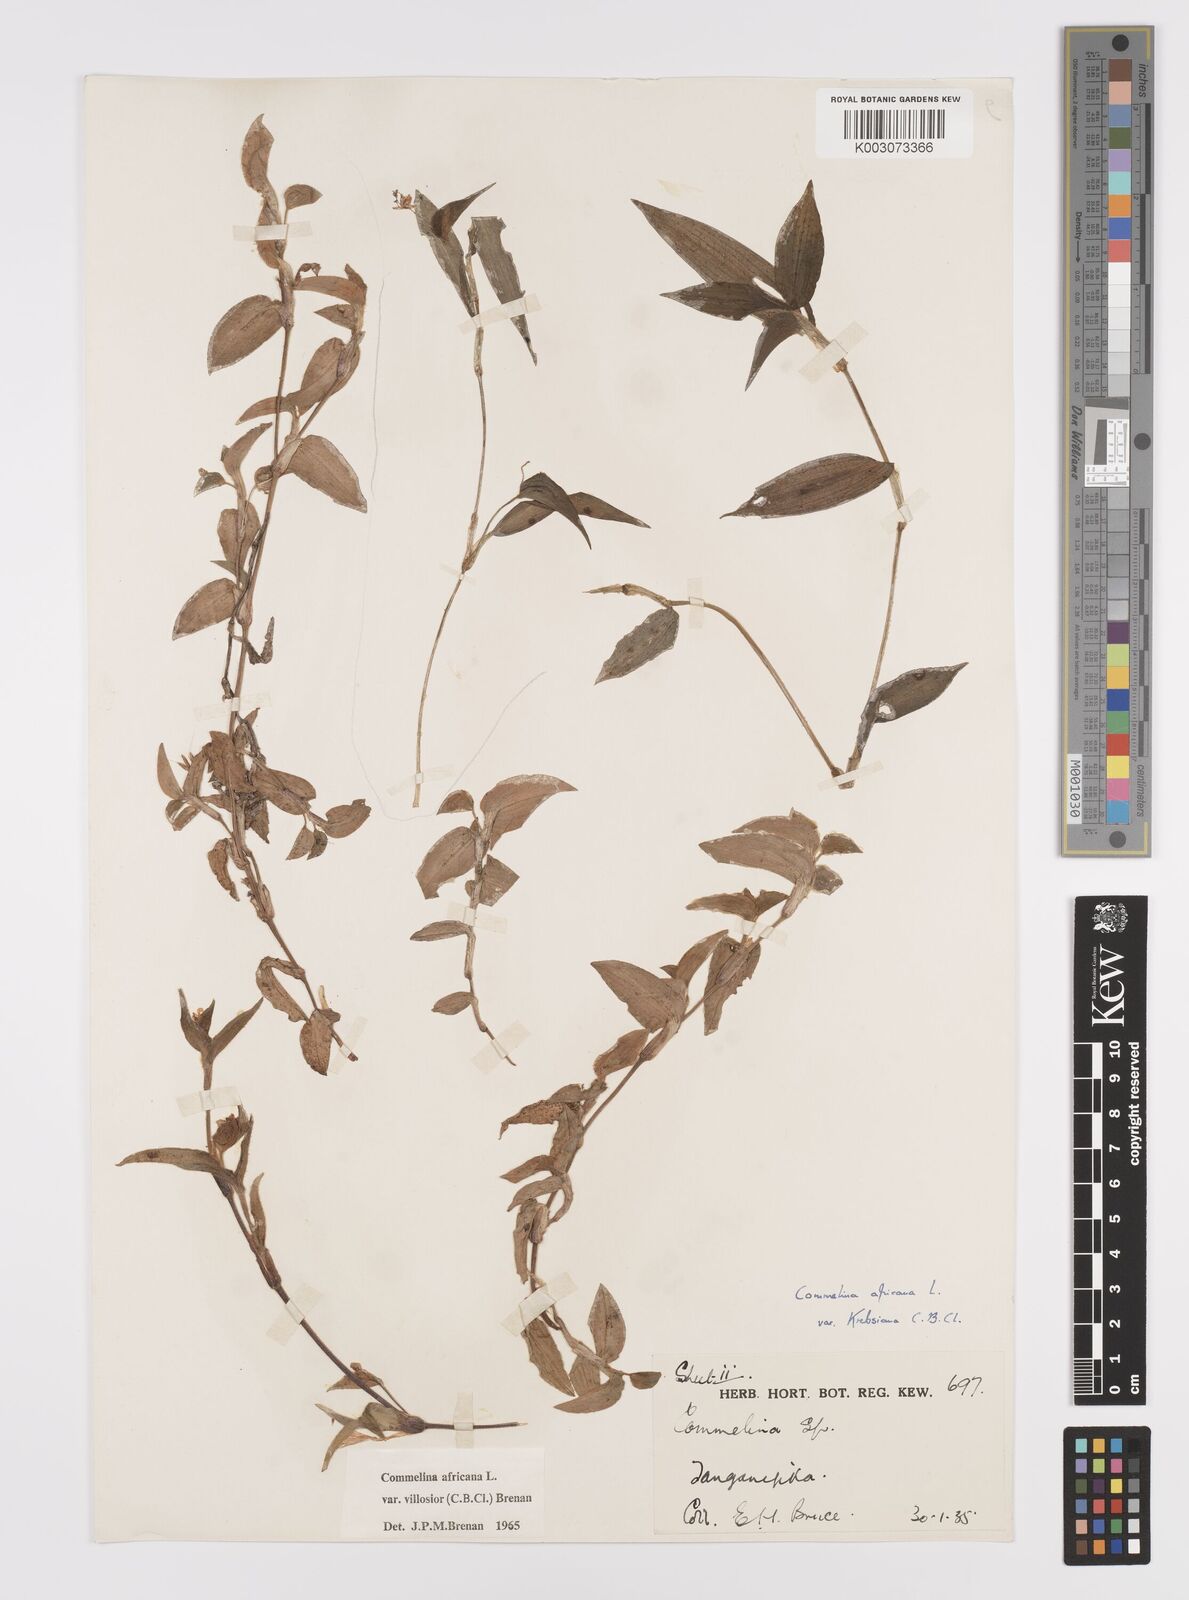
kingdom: Plantae
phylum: Tracheophyta
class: Liliopsida
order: Commelinales
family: Commelinaceae
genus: Commelina
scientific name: Commelina africana
